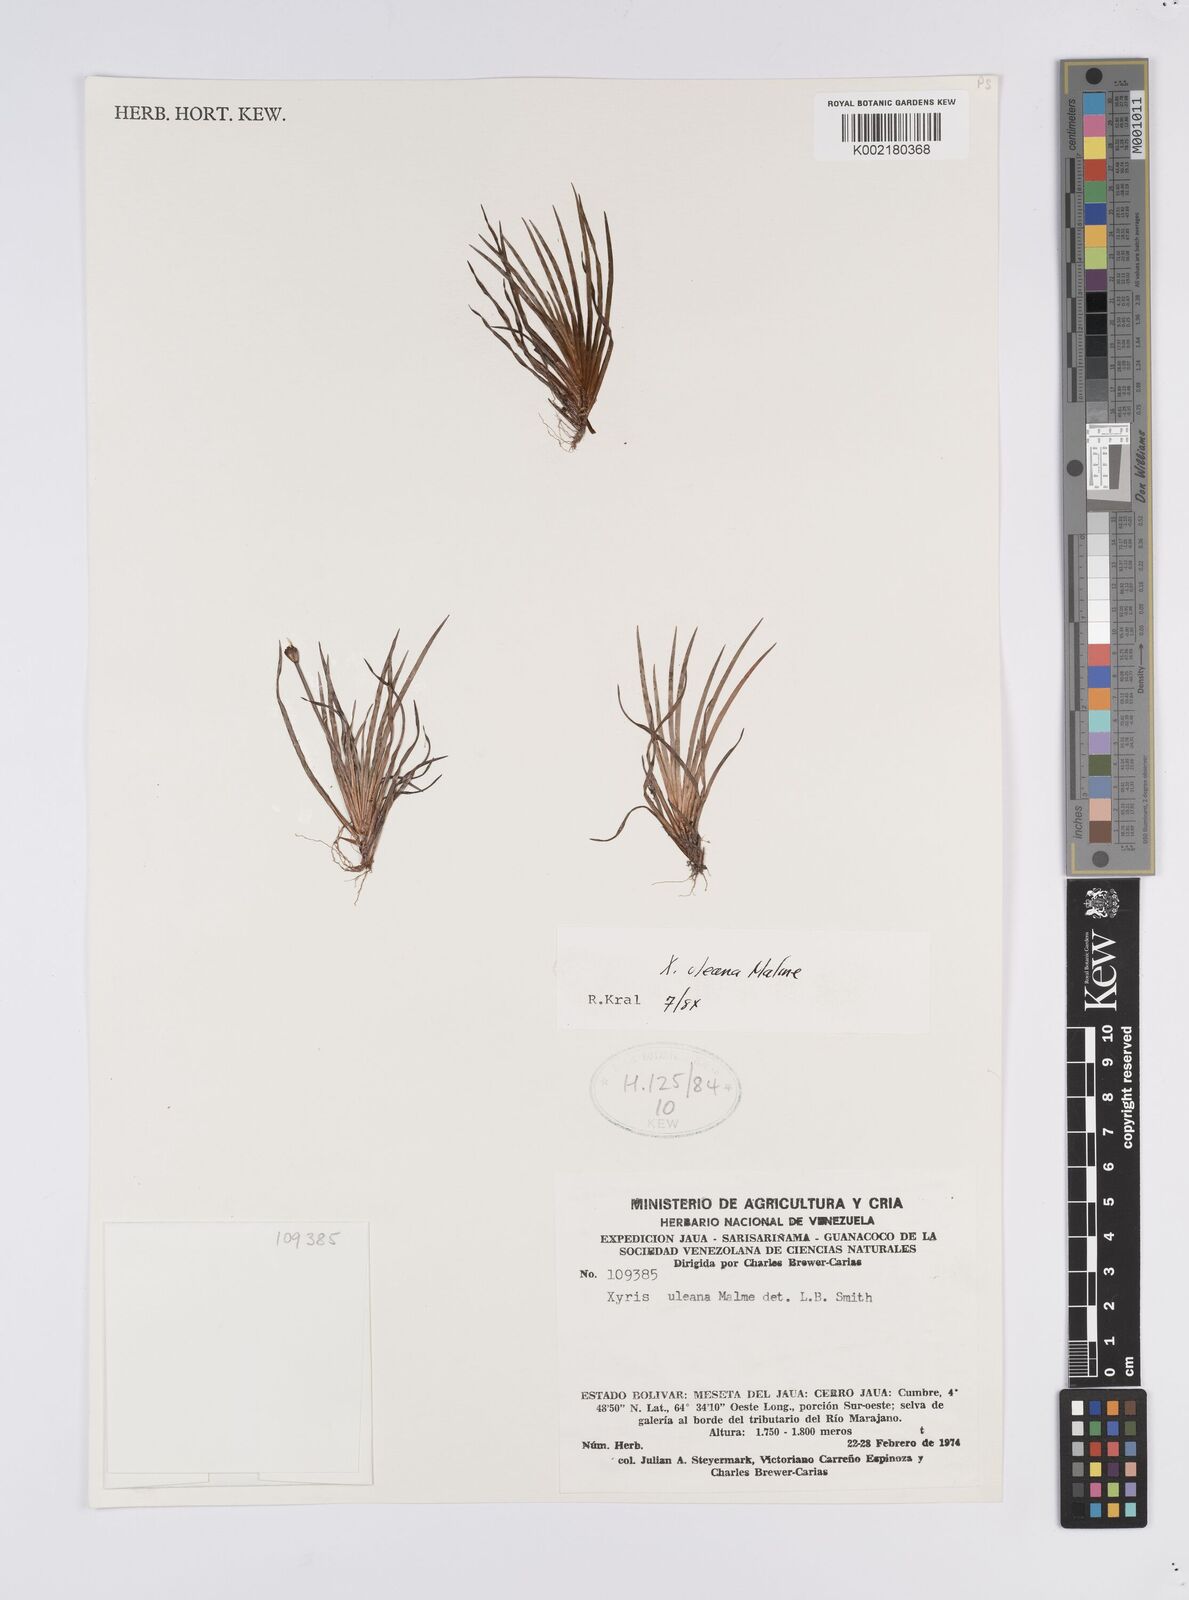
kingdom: Plantae
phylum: Tracheophyta
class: Liliopsida
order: Poales
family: Xyridaceae
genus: Xyris
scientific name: Xyris uleana
